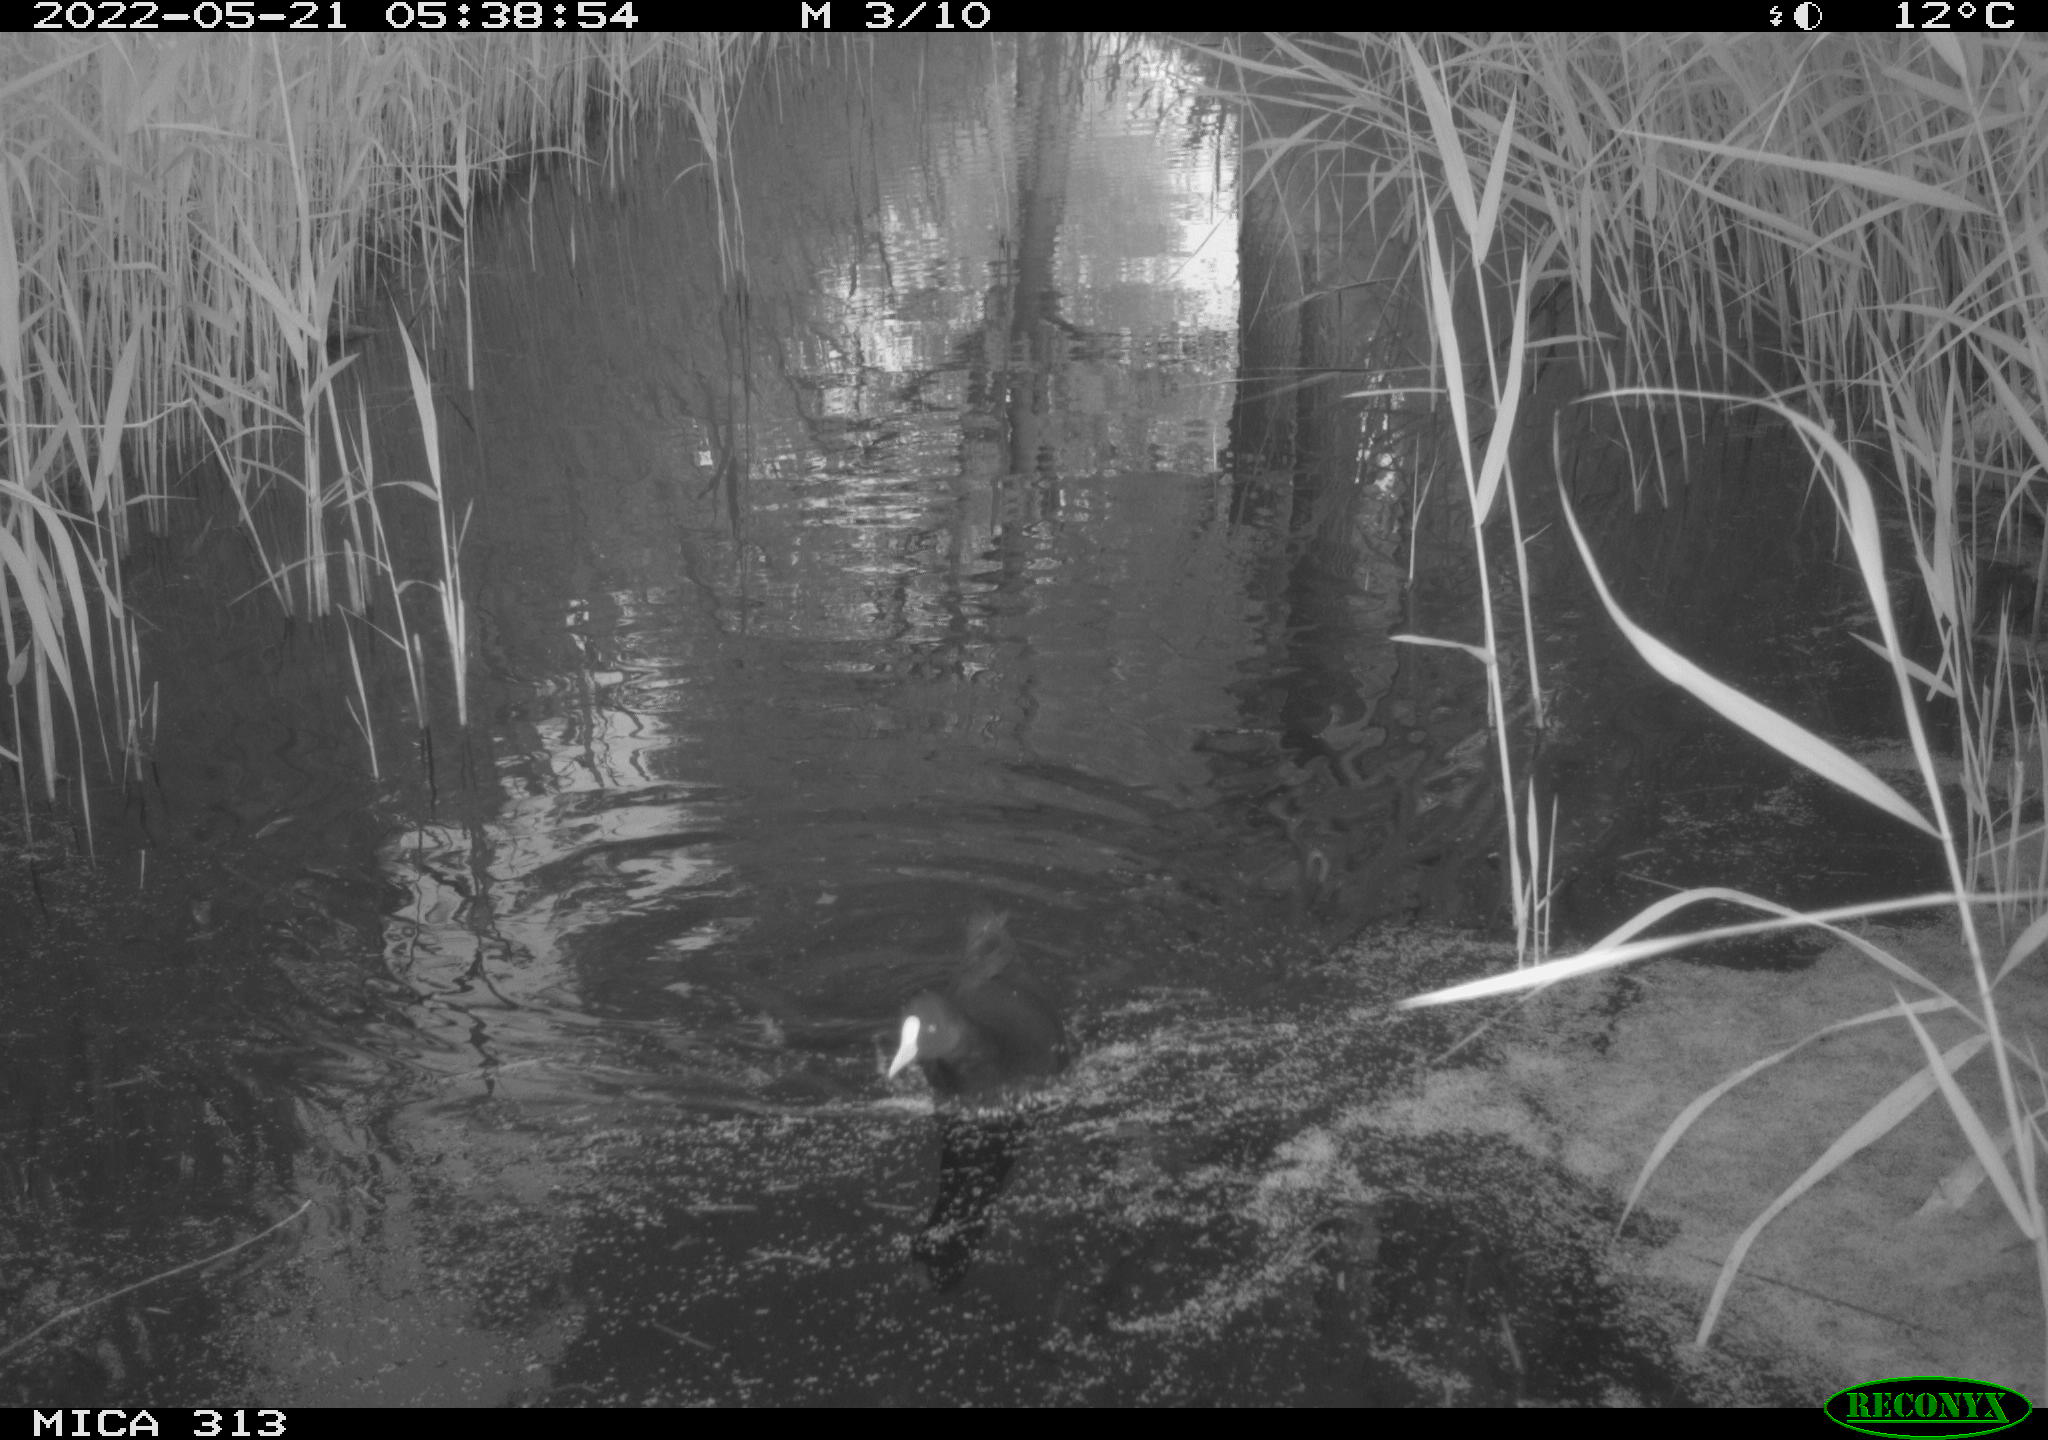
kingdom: Animalia
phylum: Chordata
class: Aves
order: Gruiformes
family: Rallidae
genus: Gallinula
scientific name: Gallinula chloropus
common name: Common moorhen
